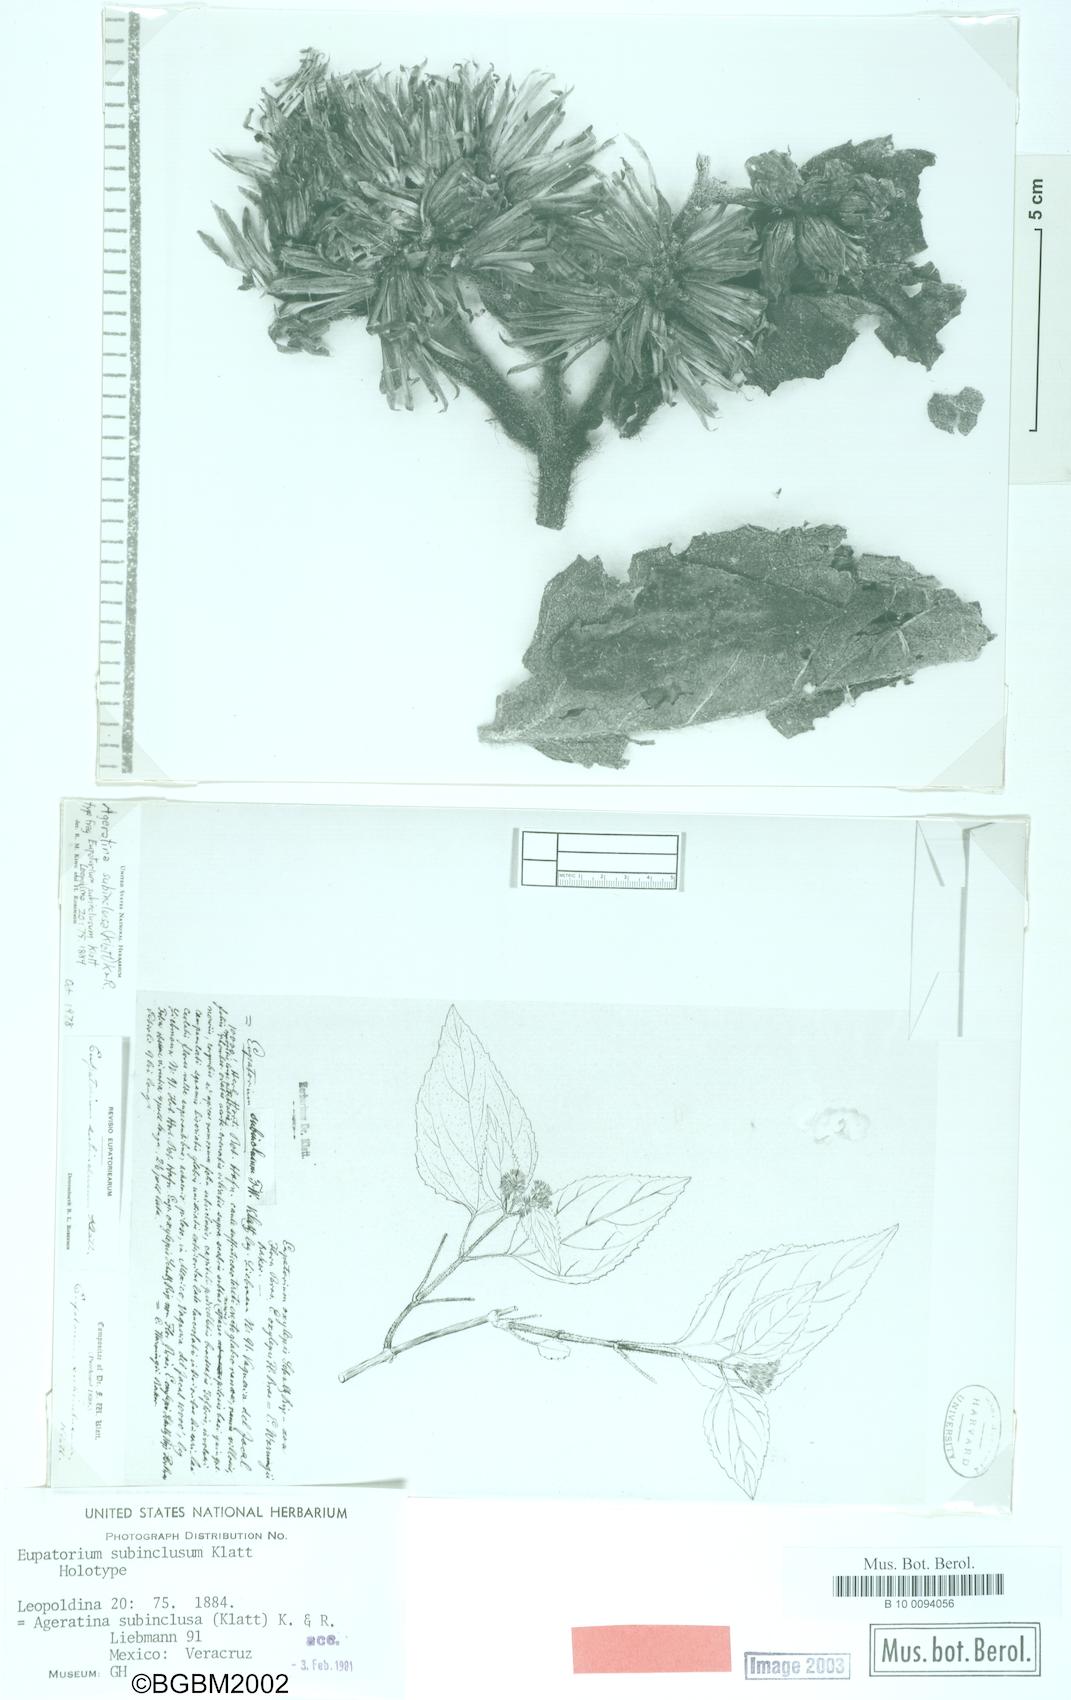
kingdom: Plantae
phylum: Tracheophyta
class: Magnoliopsida
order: Asterales
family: Asteraceae
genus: Ageratina
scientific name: Ageratina vernalis
